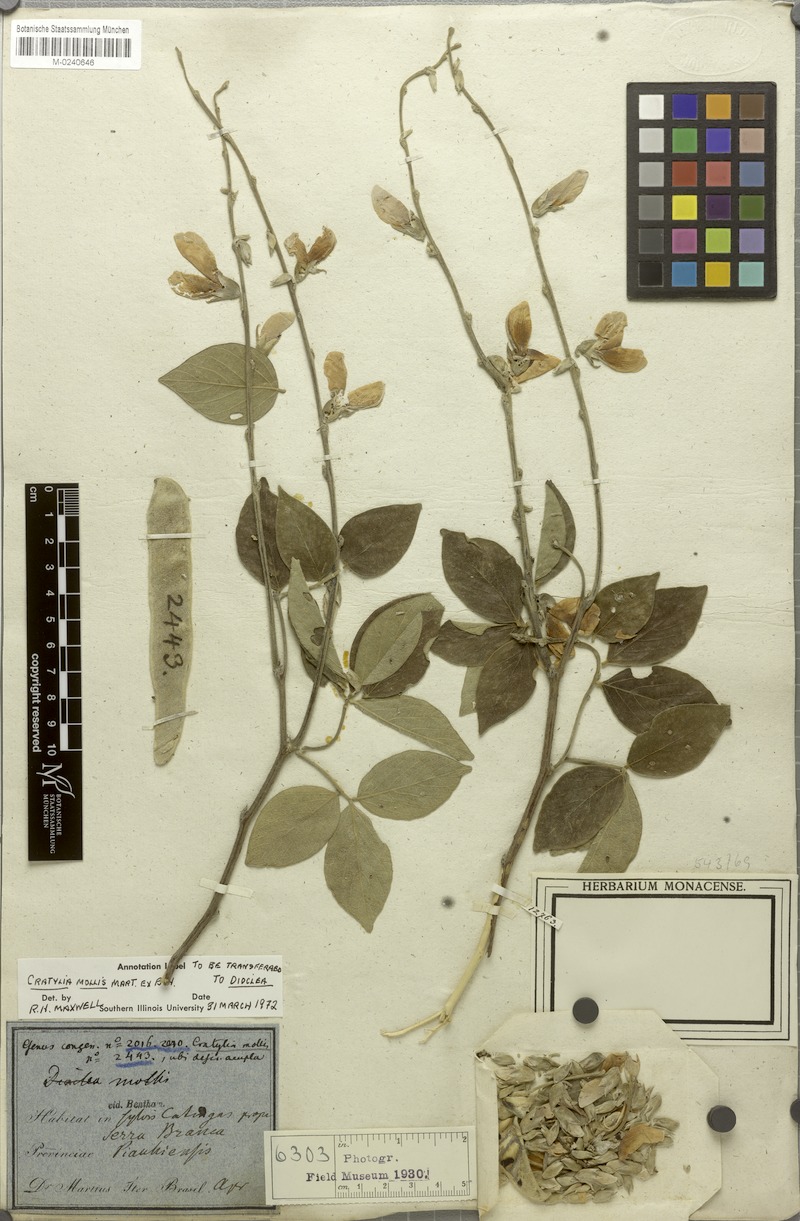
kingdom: Plantae
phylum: Tracheophyta
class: Magnoliopsida
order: Fabales
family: Fabaceae
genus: Cratylia
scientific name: Cratylia mollis
